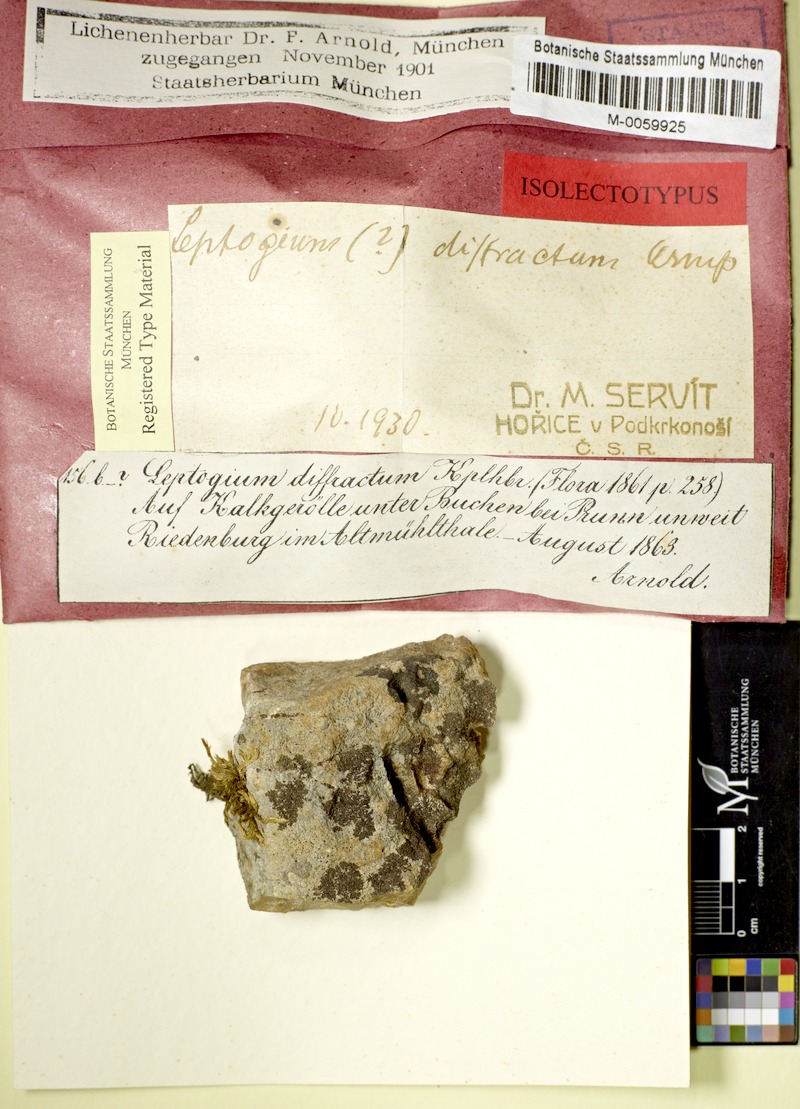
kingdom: Fungi
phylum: Ascomycota
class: Lecanoromycetes
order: Peltigerales
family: Collemataceae
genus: Pseudoleptogium
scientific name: Pseudoleptogium diffractum
